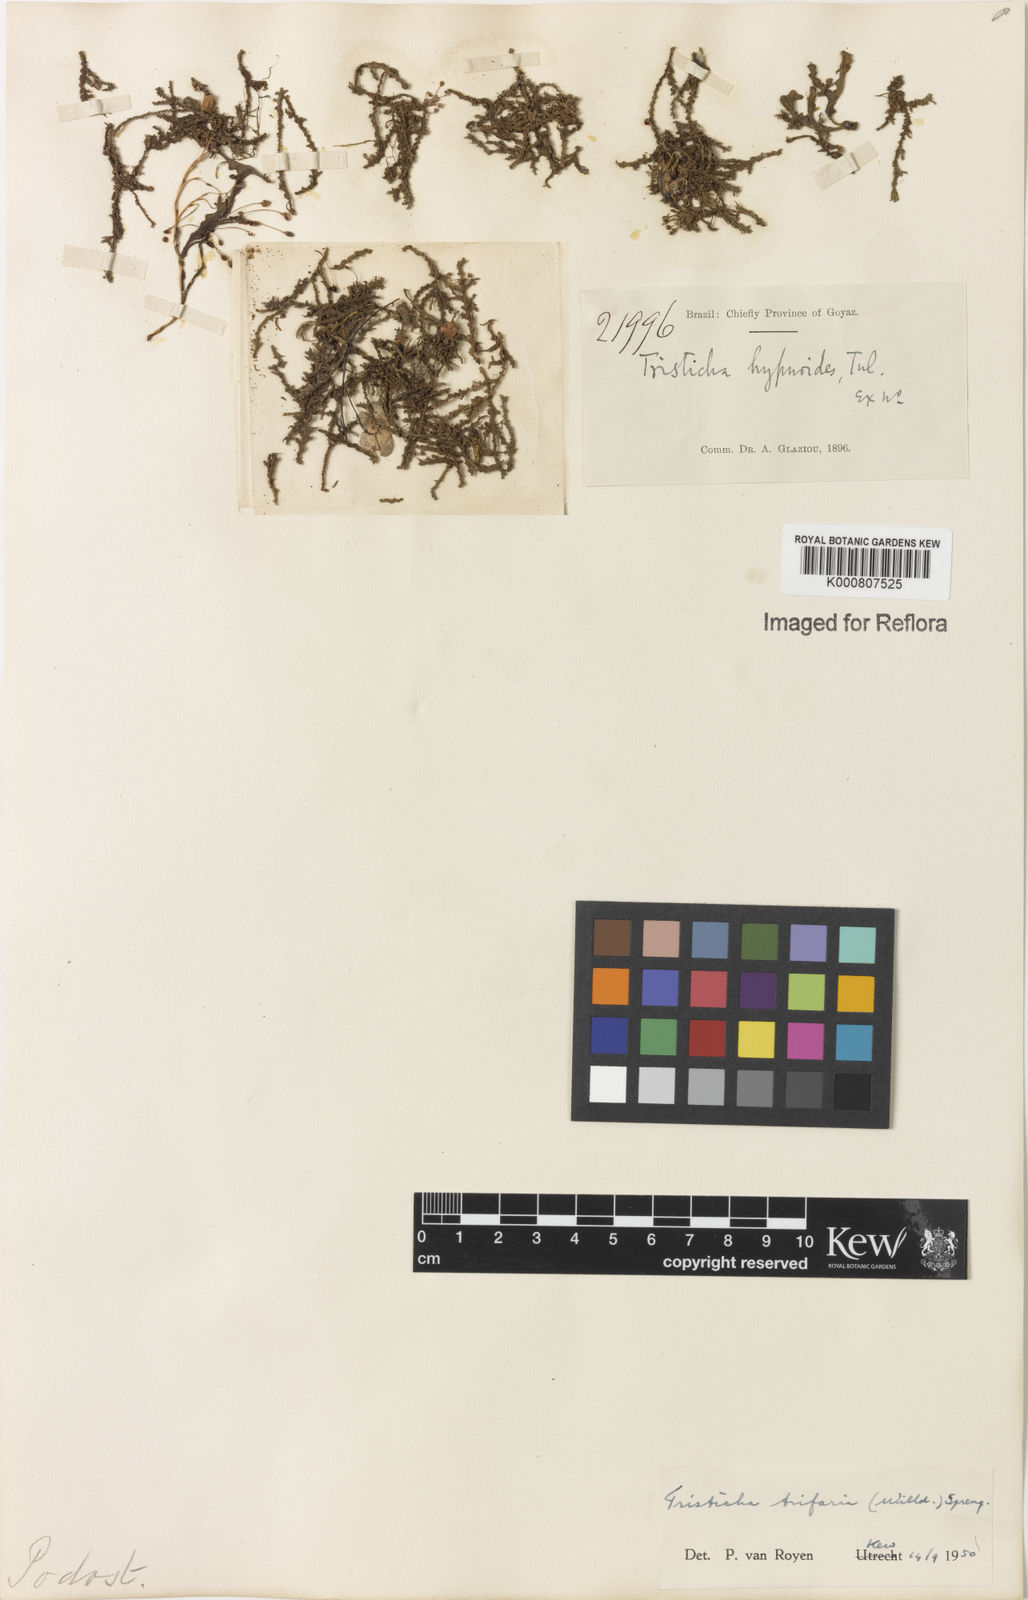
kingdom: Plantae
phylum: Tracheophyta
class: Magnoliopsida
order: Malpighiales
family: Podostemaceae
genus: Tristicha
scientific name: Tristicha trifaria
